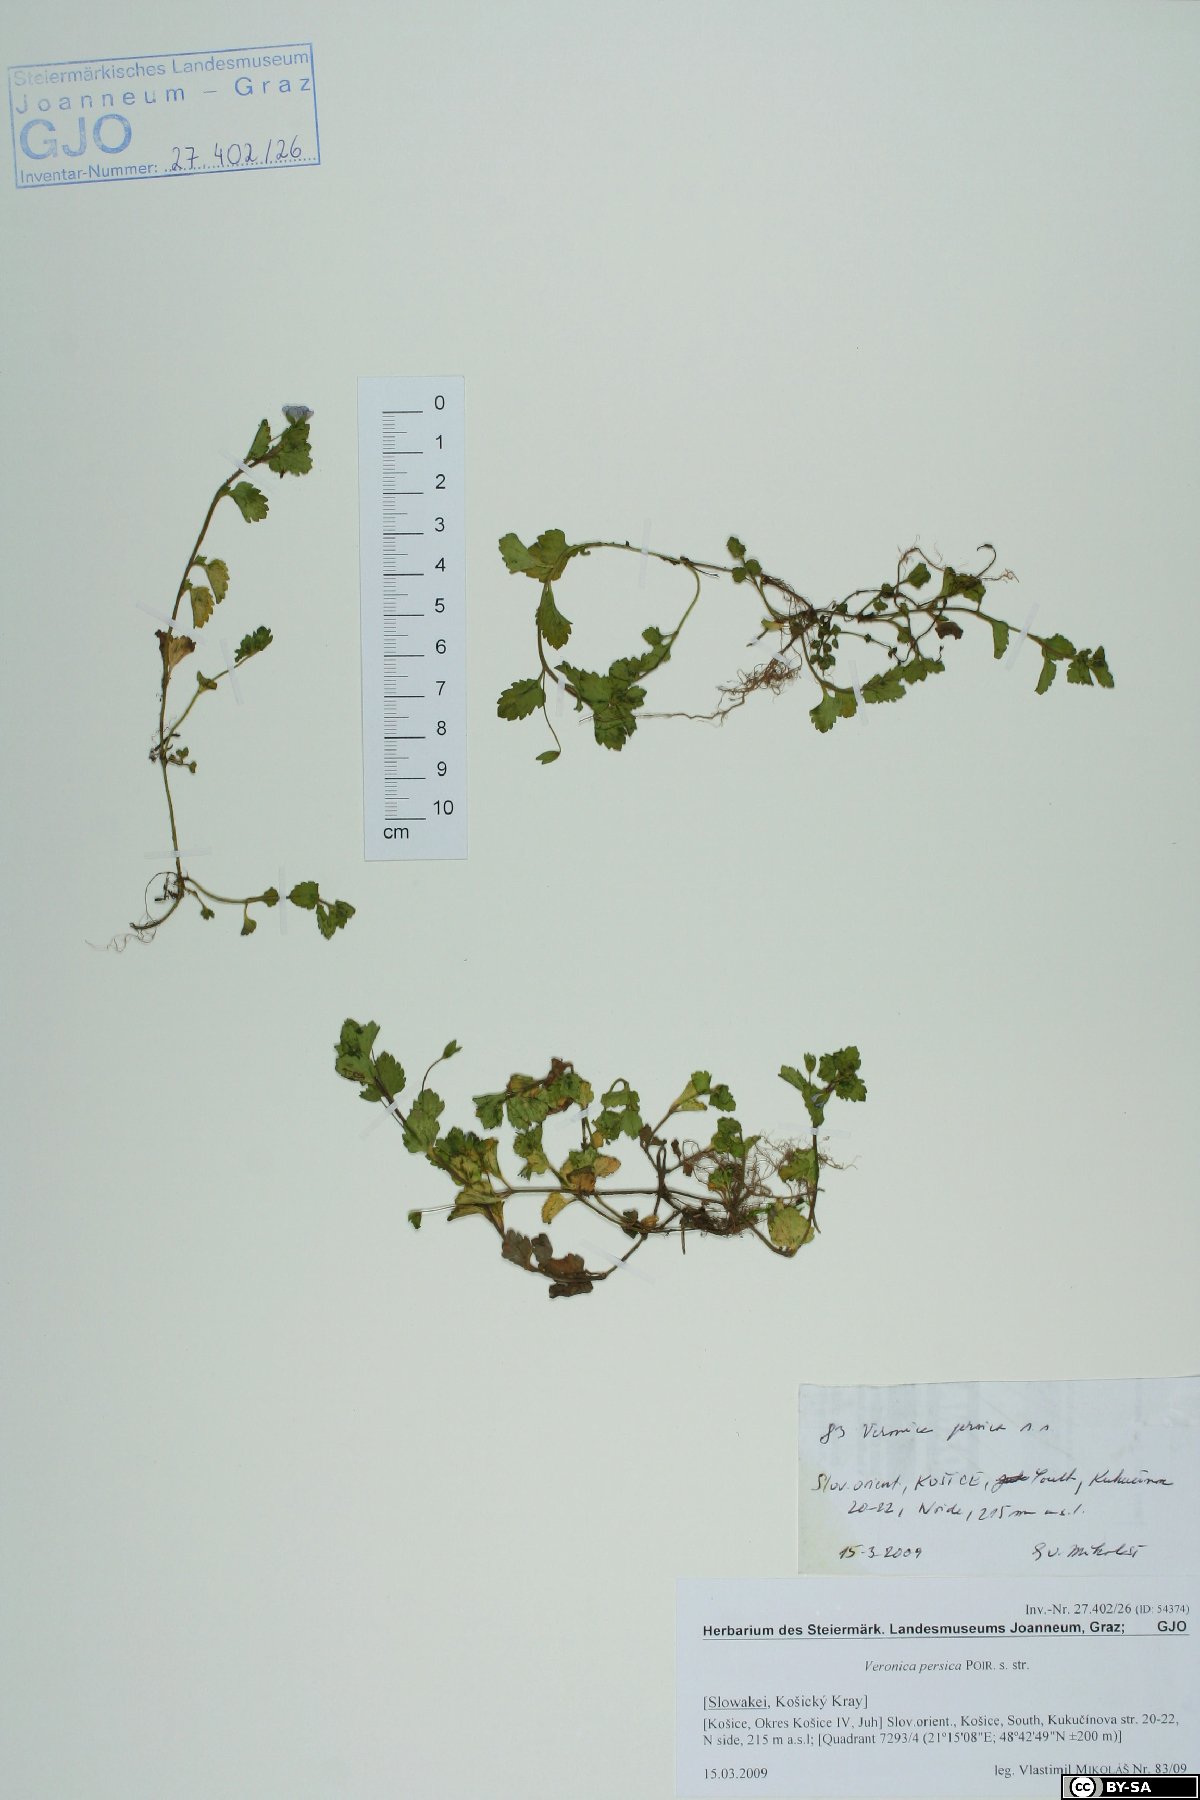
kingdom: Plantae
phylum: Tracheophyta
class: Magnoliopsida
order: Lamiales
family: Plantaginaceae
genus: Veronica
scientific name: Veronica persica
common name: Common field-speedwell
